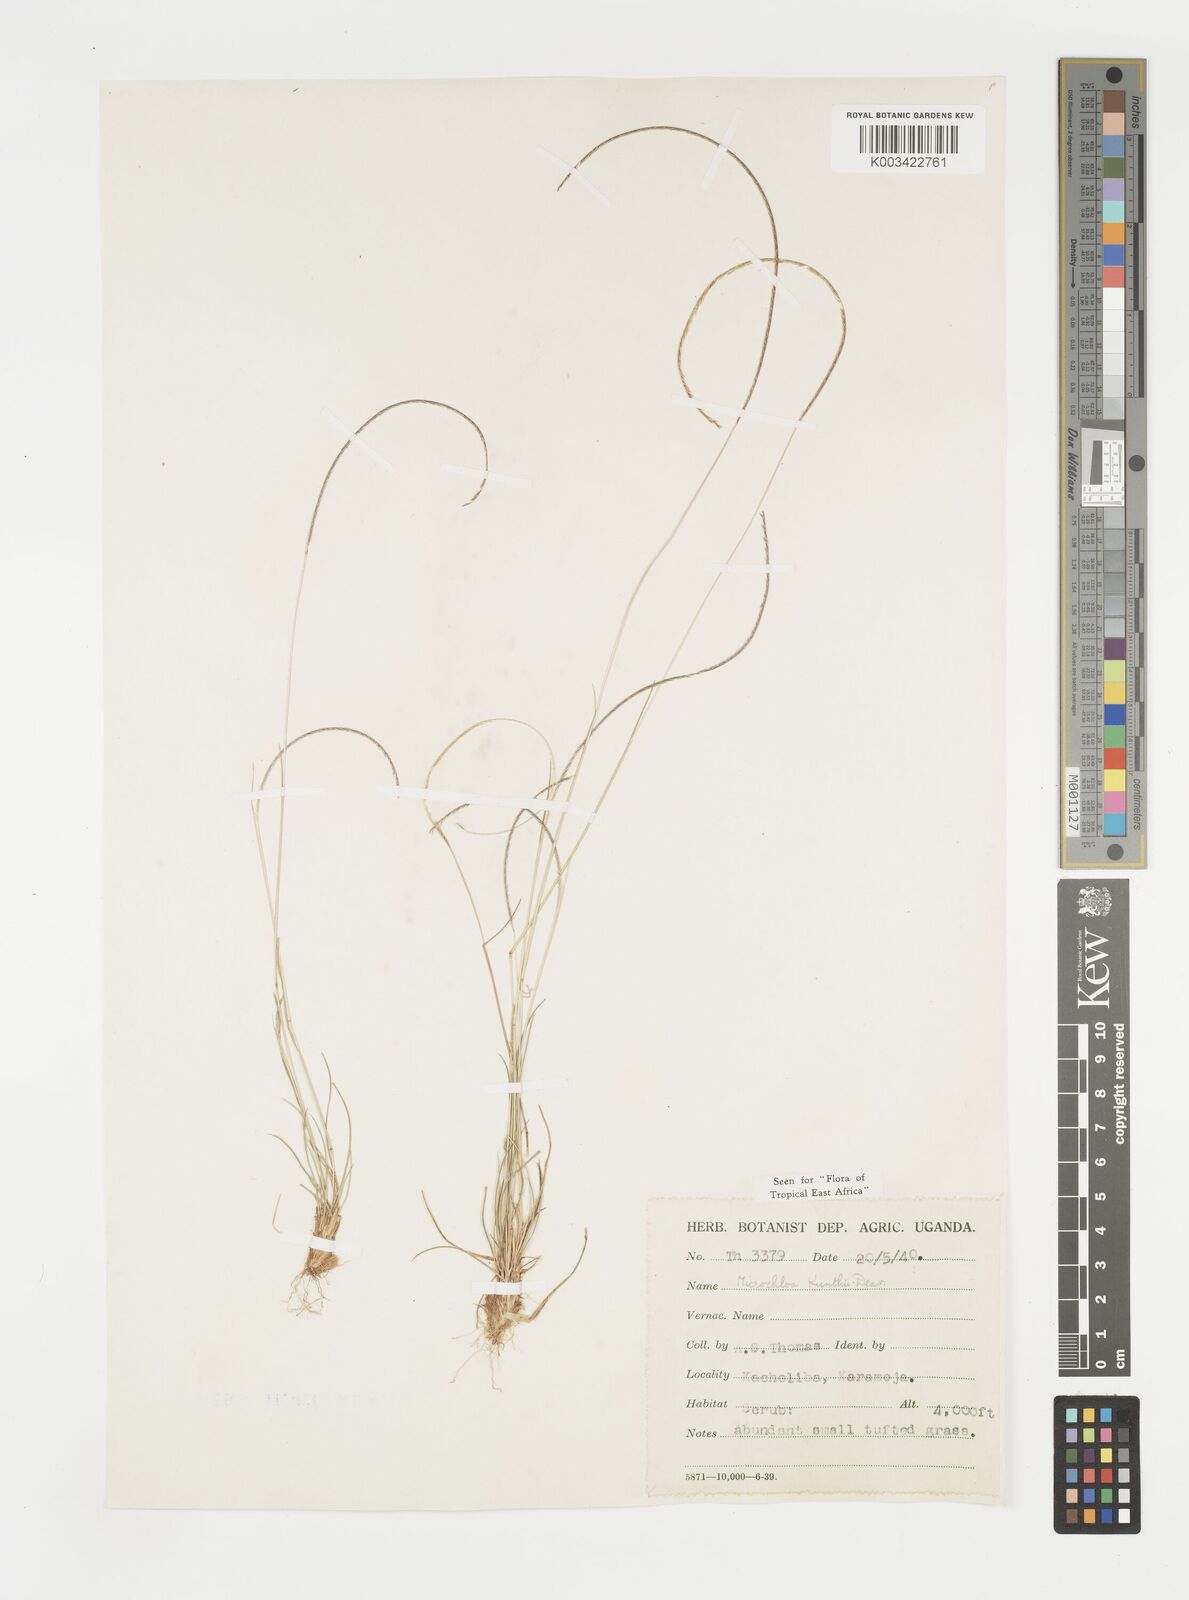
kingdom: Plantae
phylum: Tracheophyta
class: Liliopsida
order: Poales
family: Poaceae
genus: Microchloa
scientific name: Microchloa kunthii
